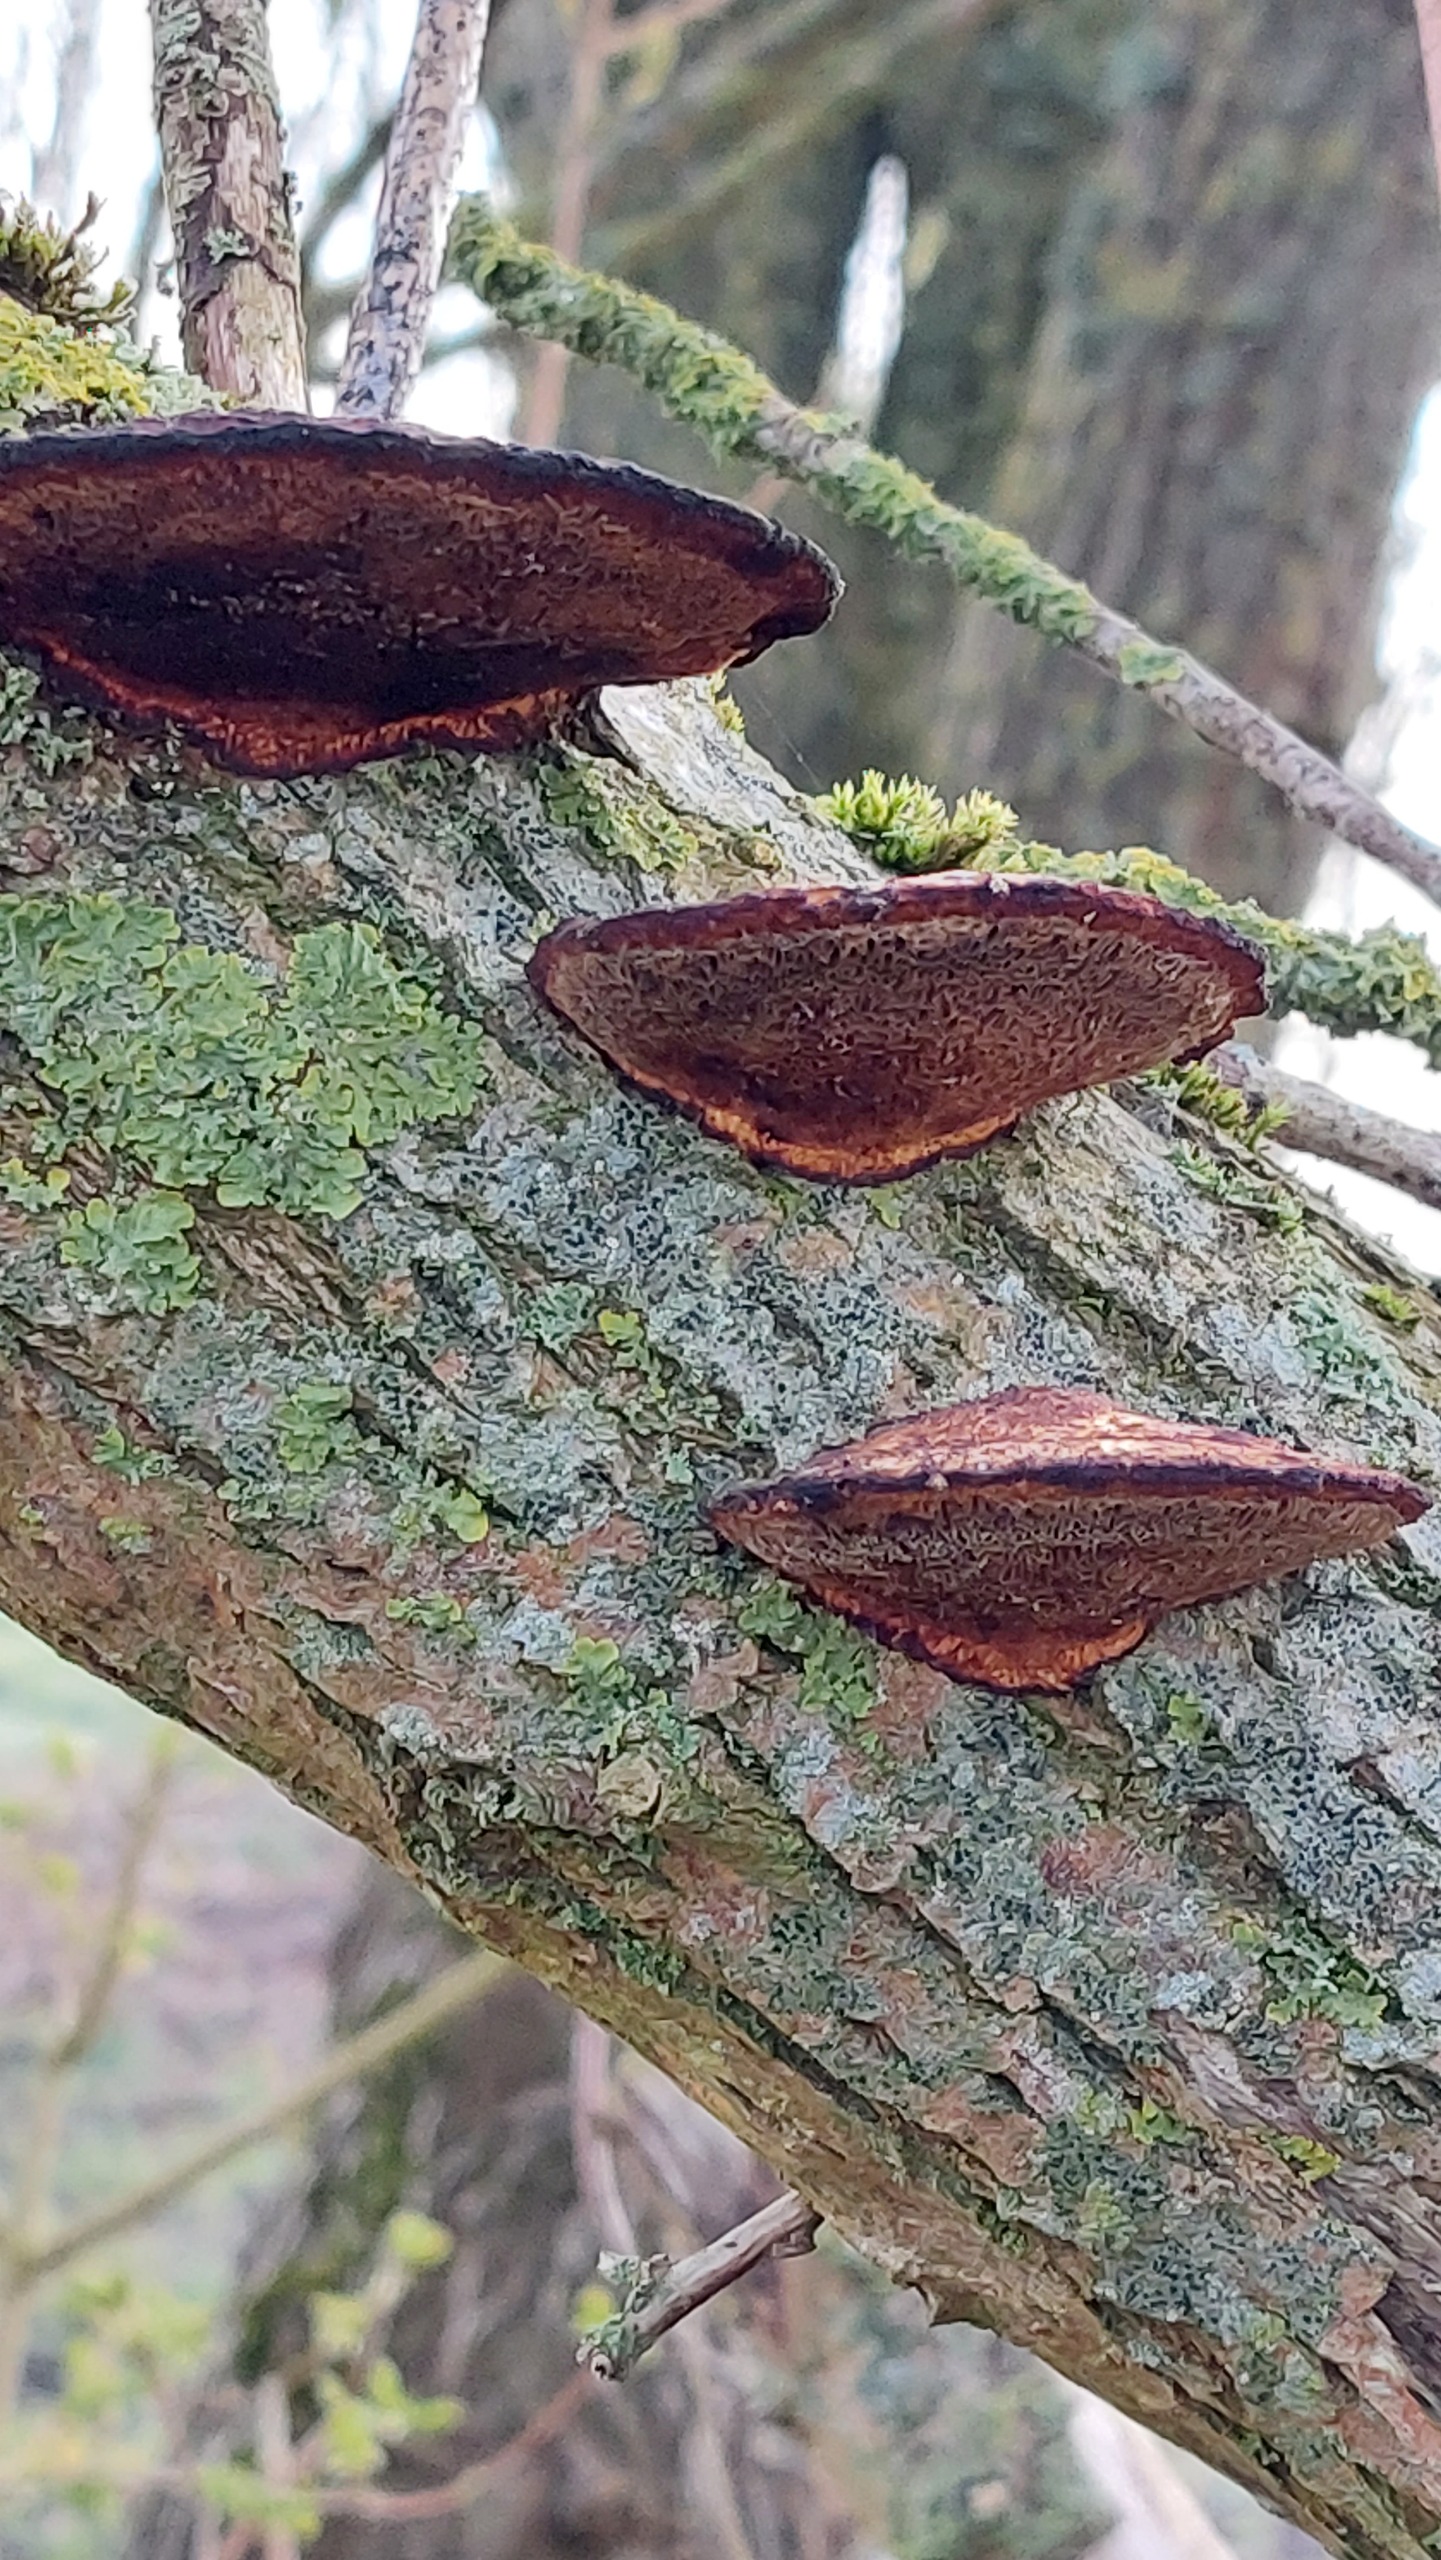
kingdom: Fungi
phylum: Basidiomycota
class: Agaricomycetes
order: Polyporales
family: Polyporaceae
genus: Daedaleopsis
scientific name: Daedaleopsis confragosa
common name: Rødmende læderporesvamp
